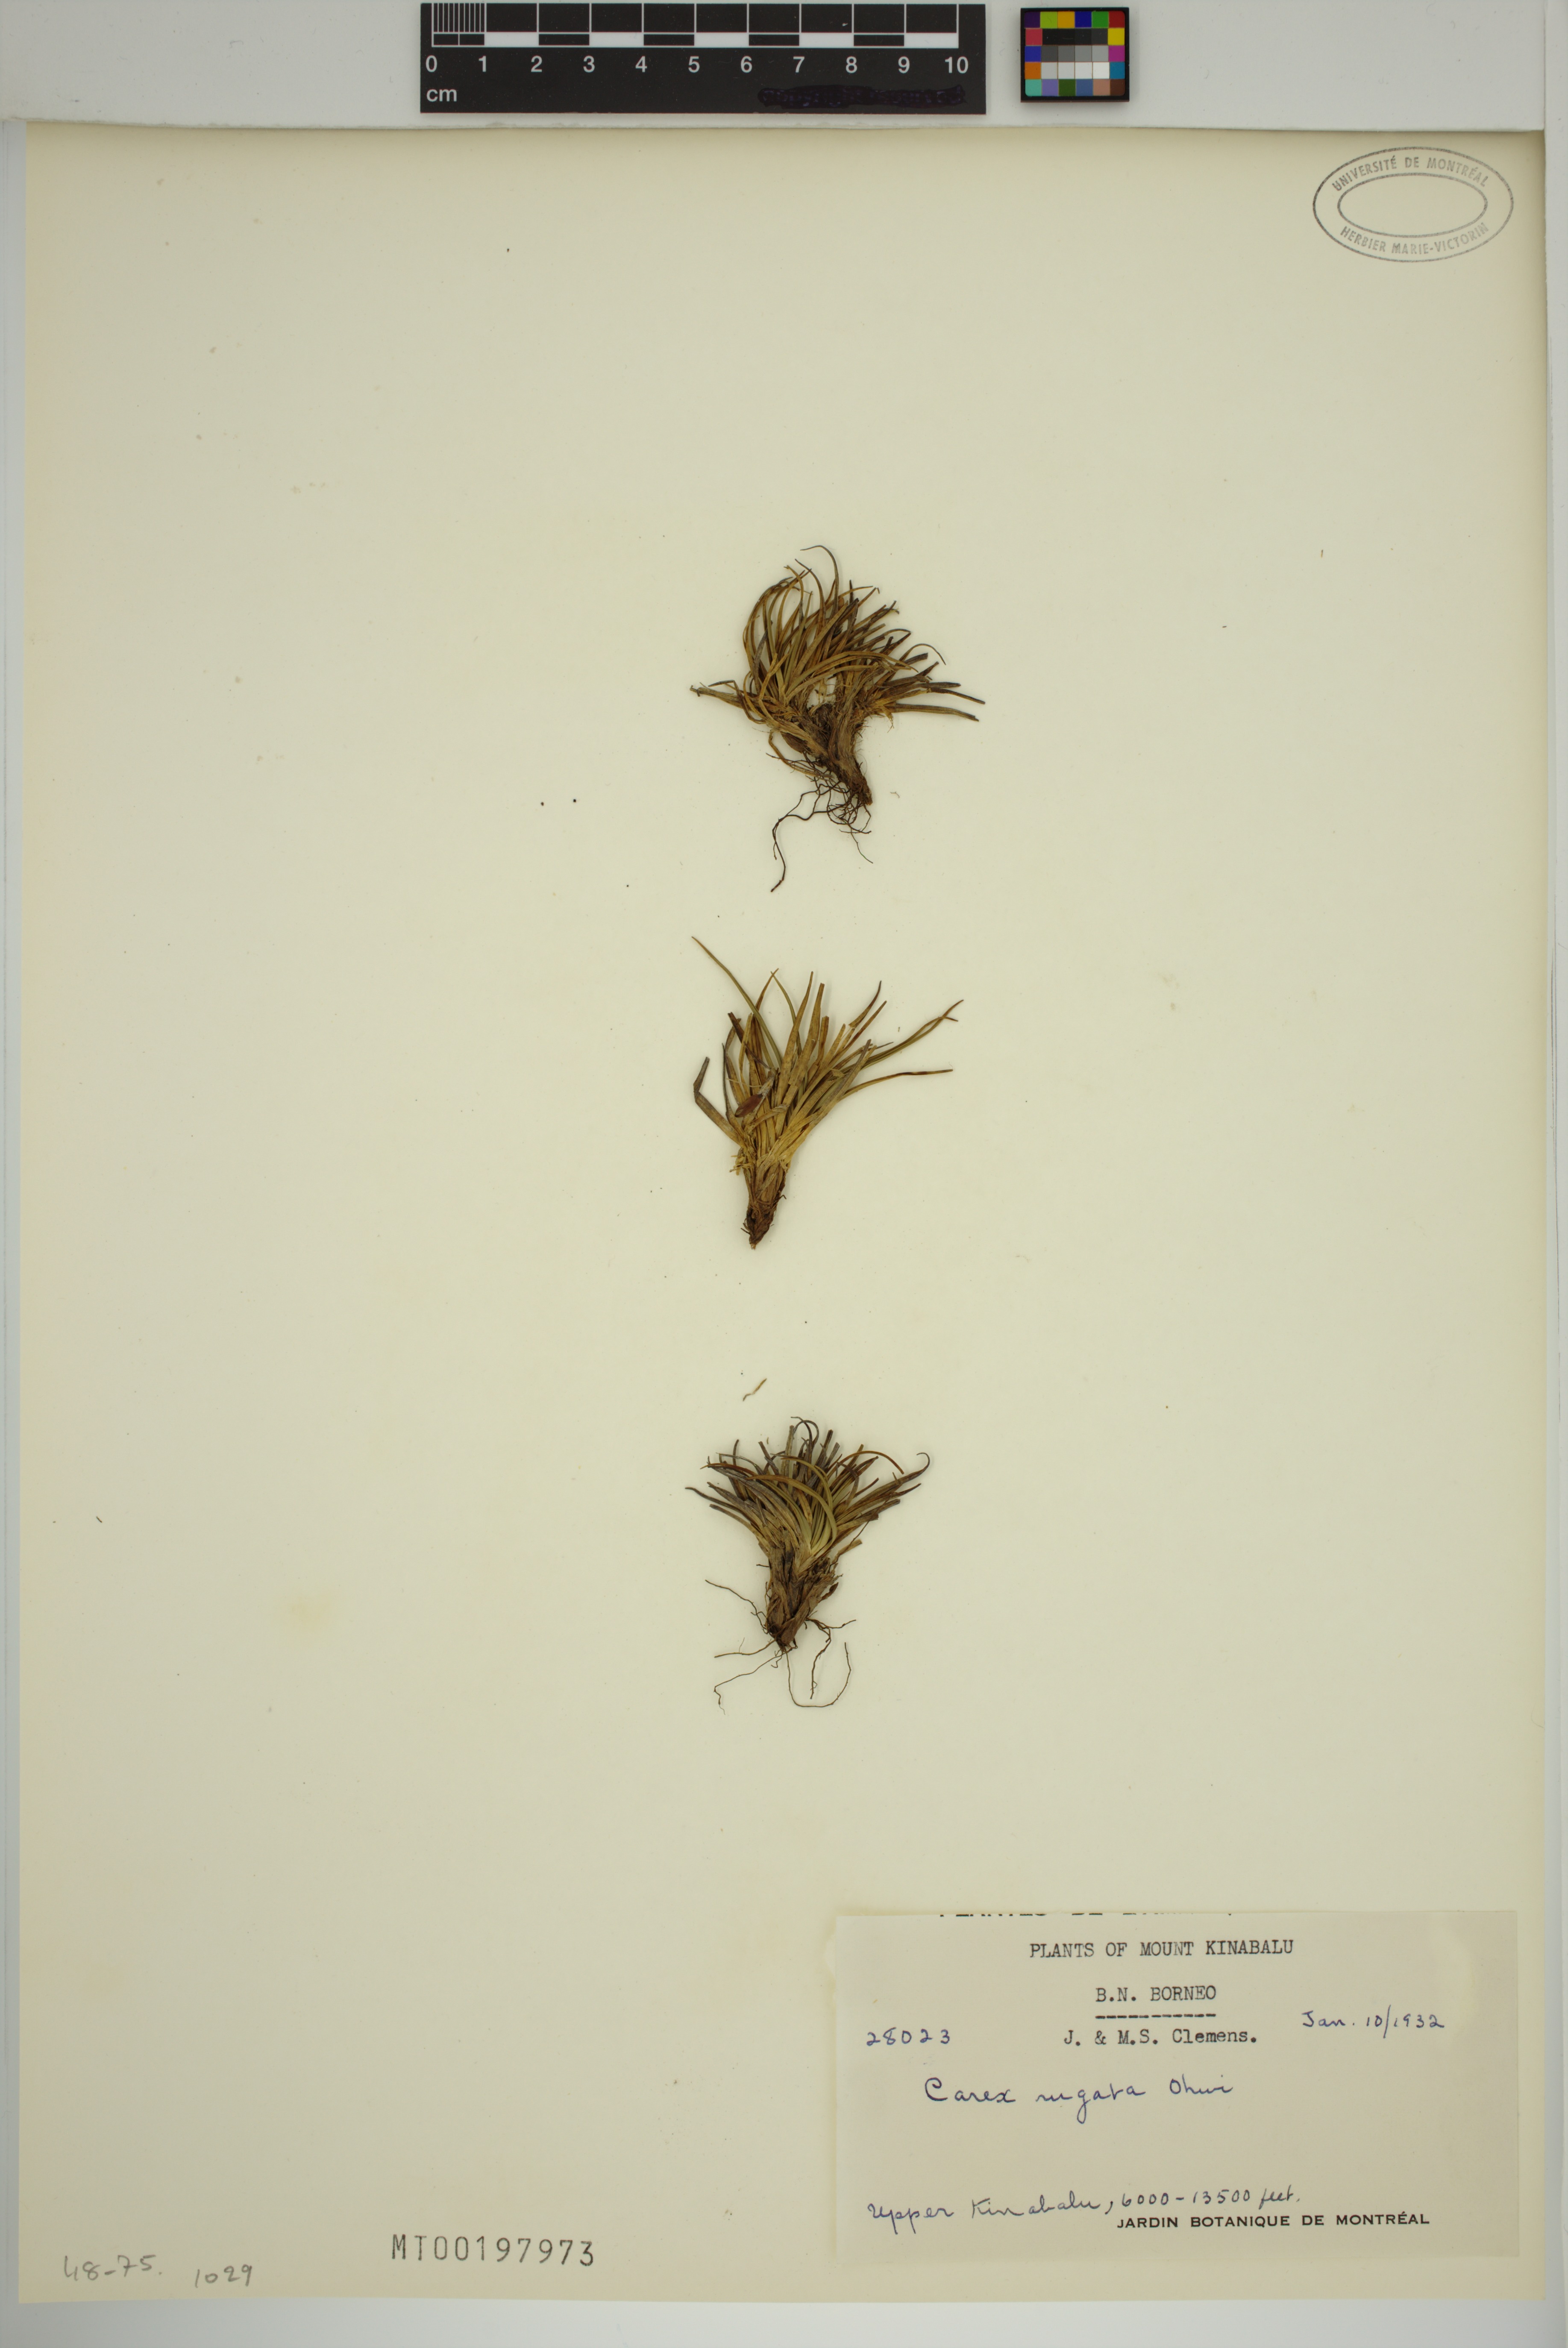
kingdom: Plantae
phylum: Tracheophyta
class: Liliopsida
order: Poales
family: Cyperaceae
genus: Carex
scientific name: Carex rugata
